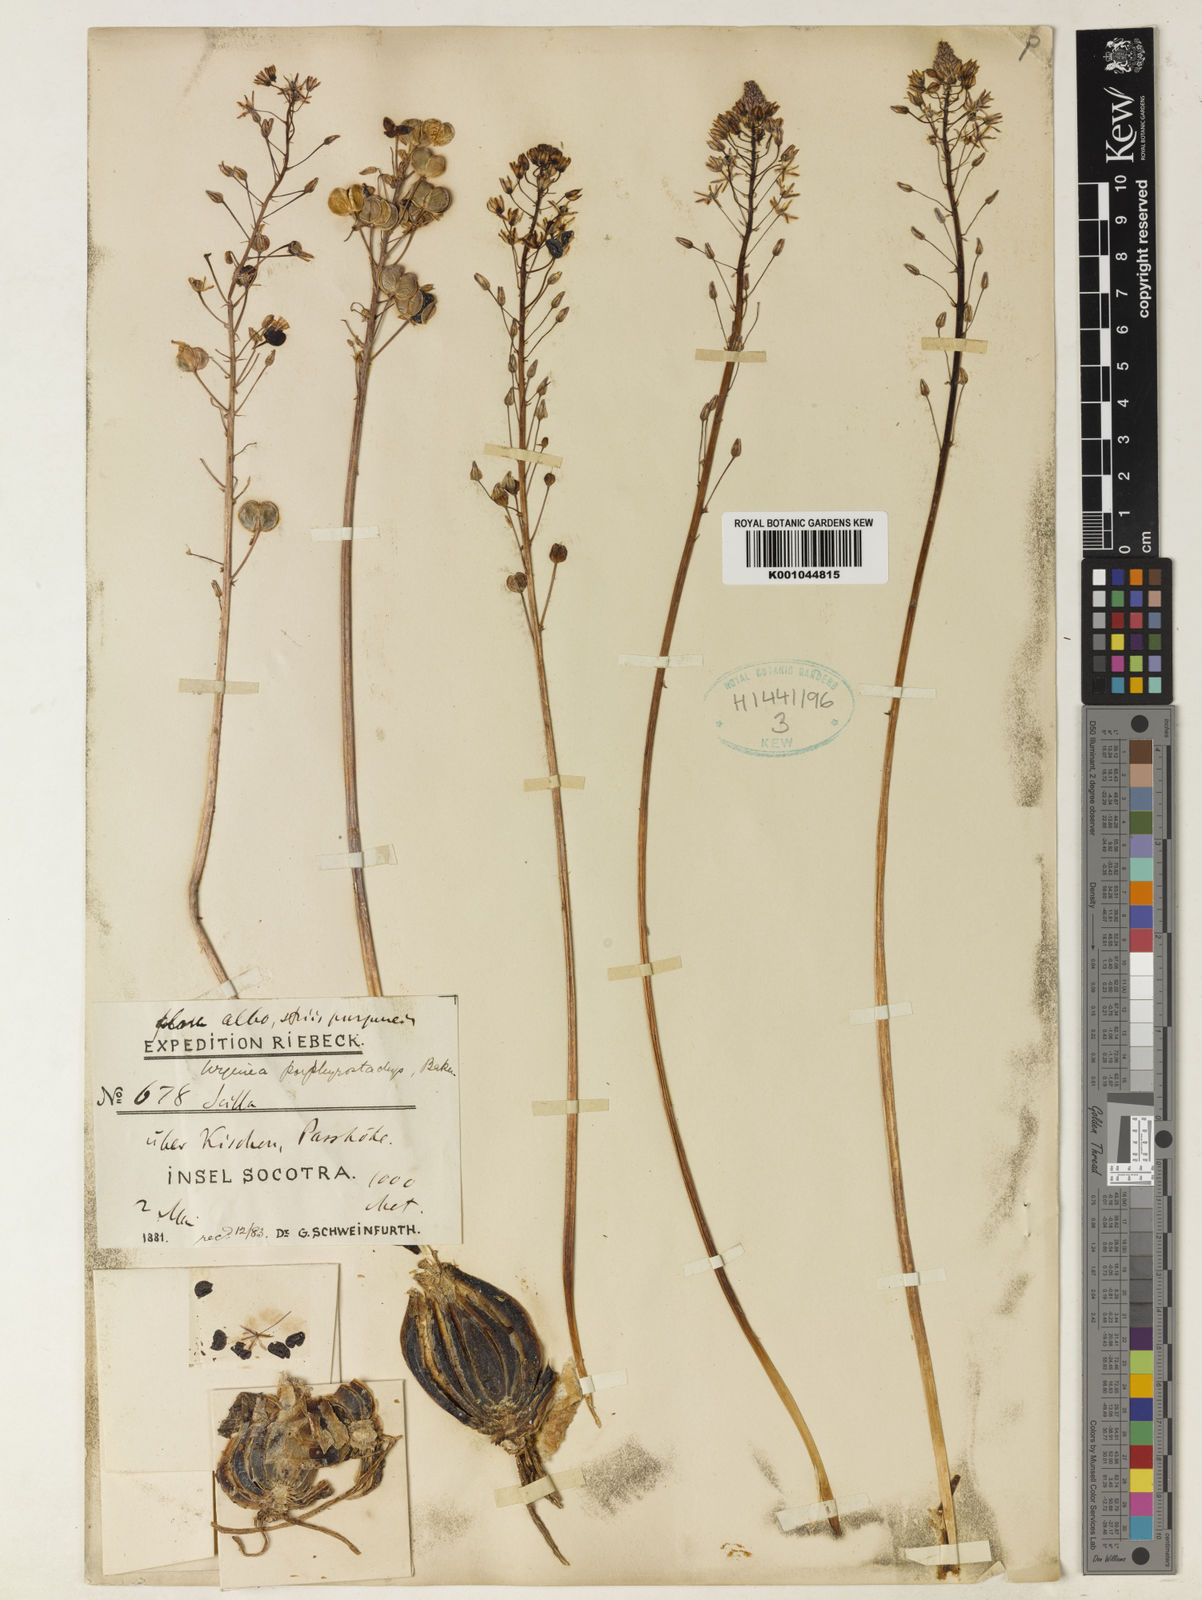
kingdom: Plantae
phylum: Tracheophyta
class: Liliopsida
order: Asparagales
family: Asparagaceae
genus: Drimia
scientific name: Drimia
